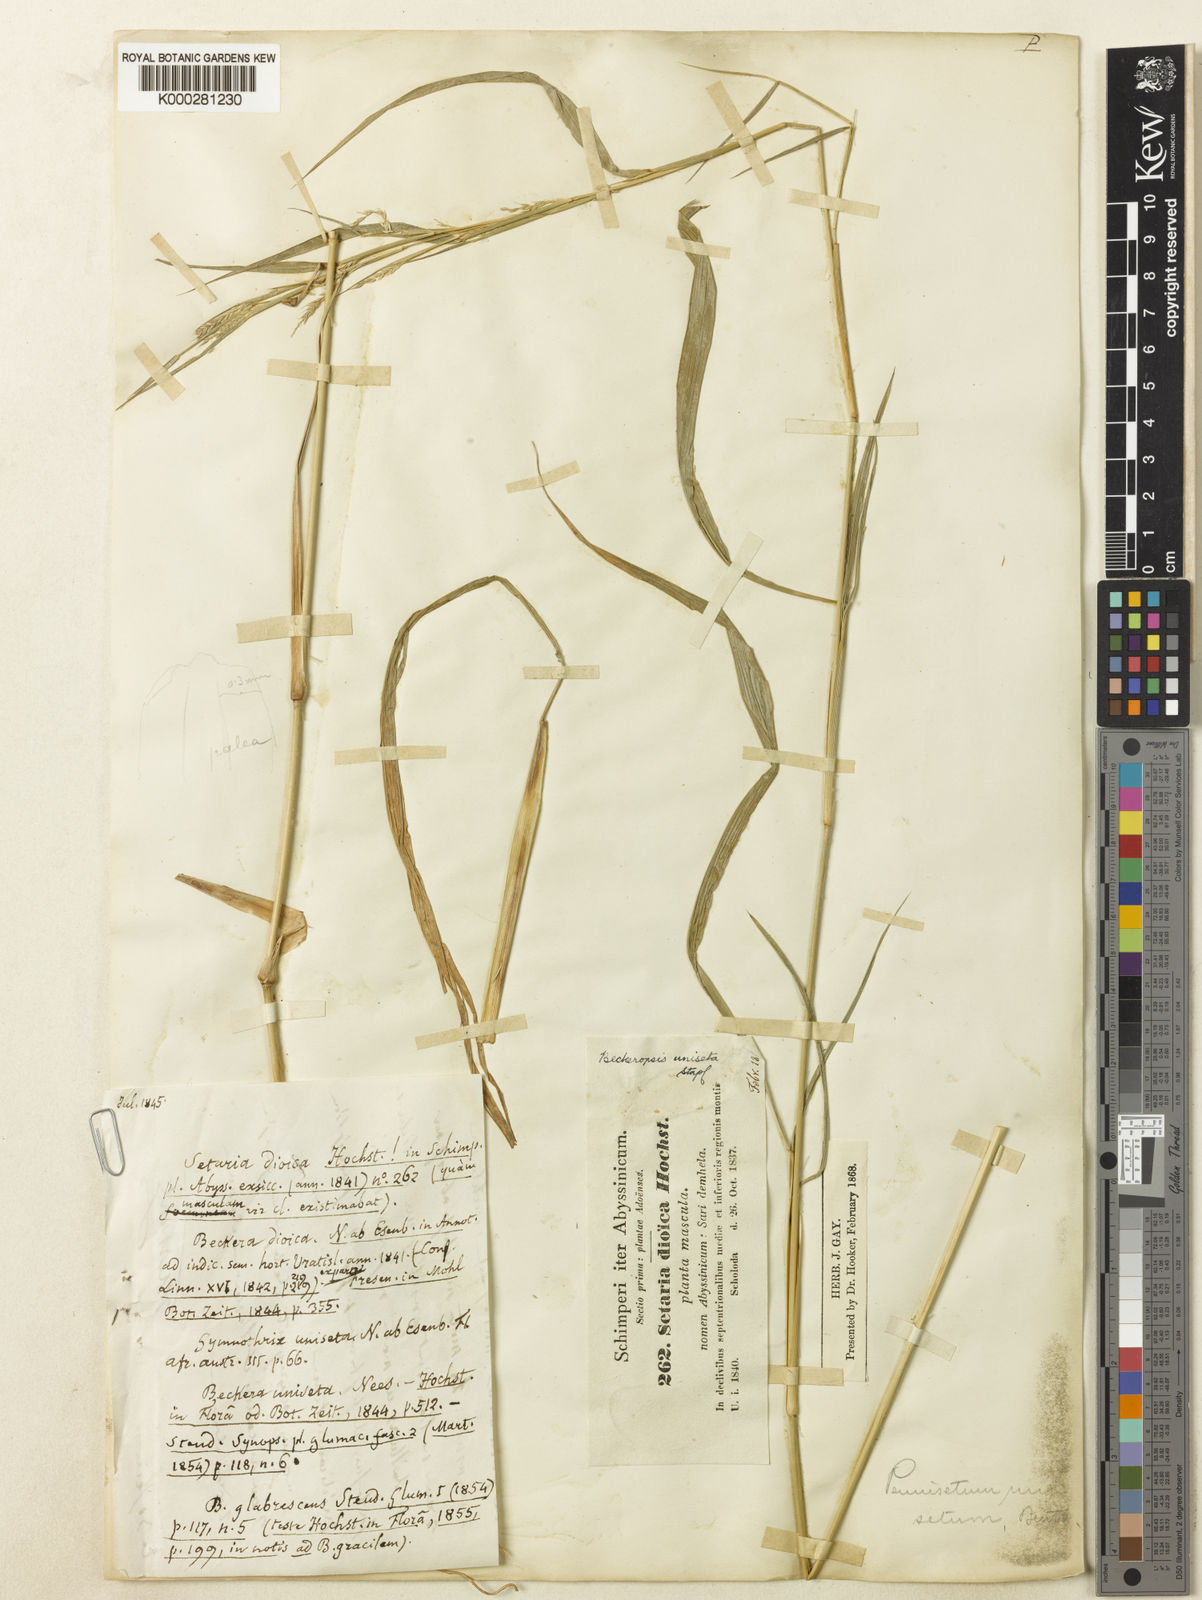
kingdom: Plantae
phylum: Tracheophyta
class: Liliopsida
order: Poales
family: Poaceae
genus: Cenchrus
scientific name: Cenchrus unisetus
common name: Natal grass
